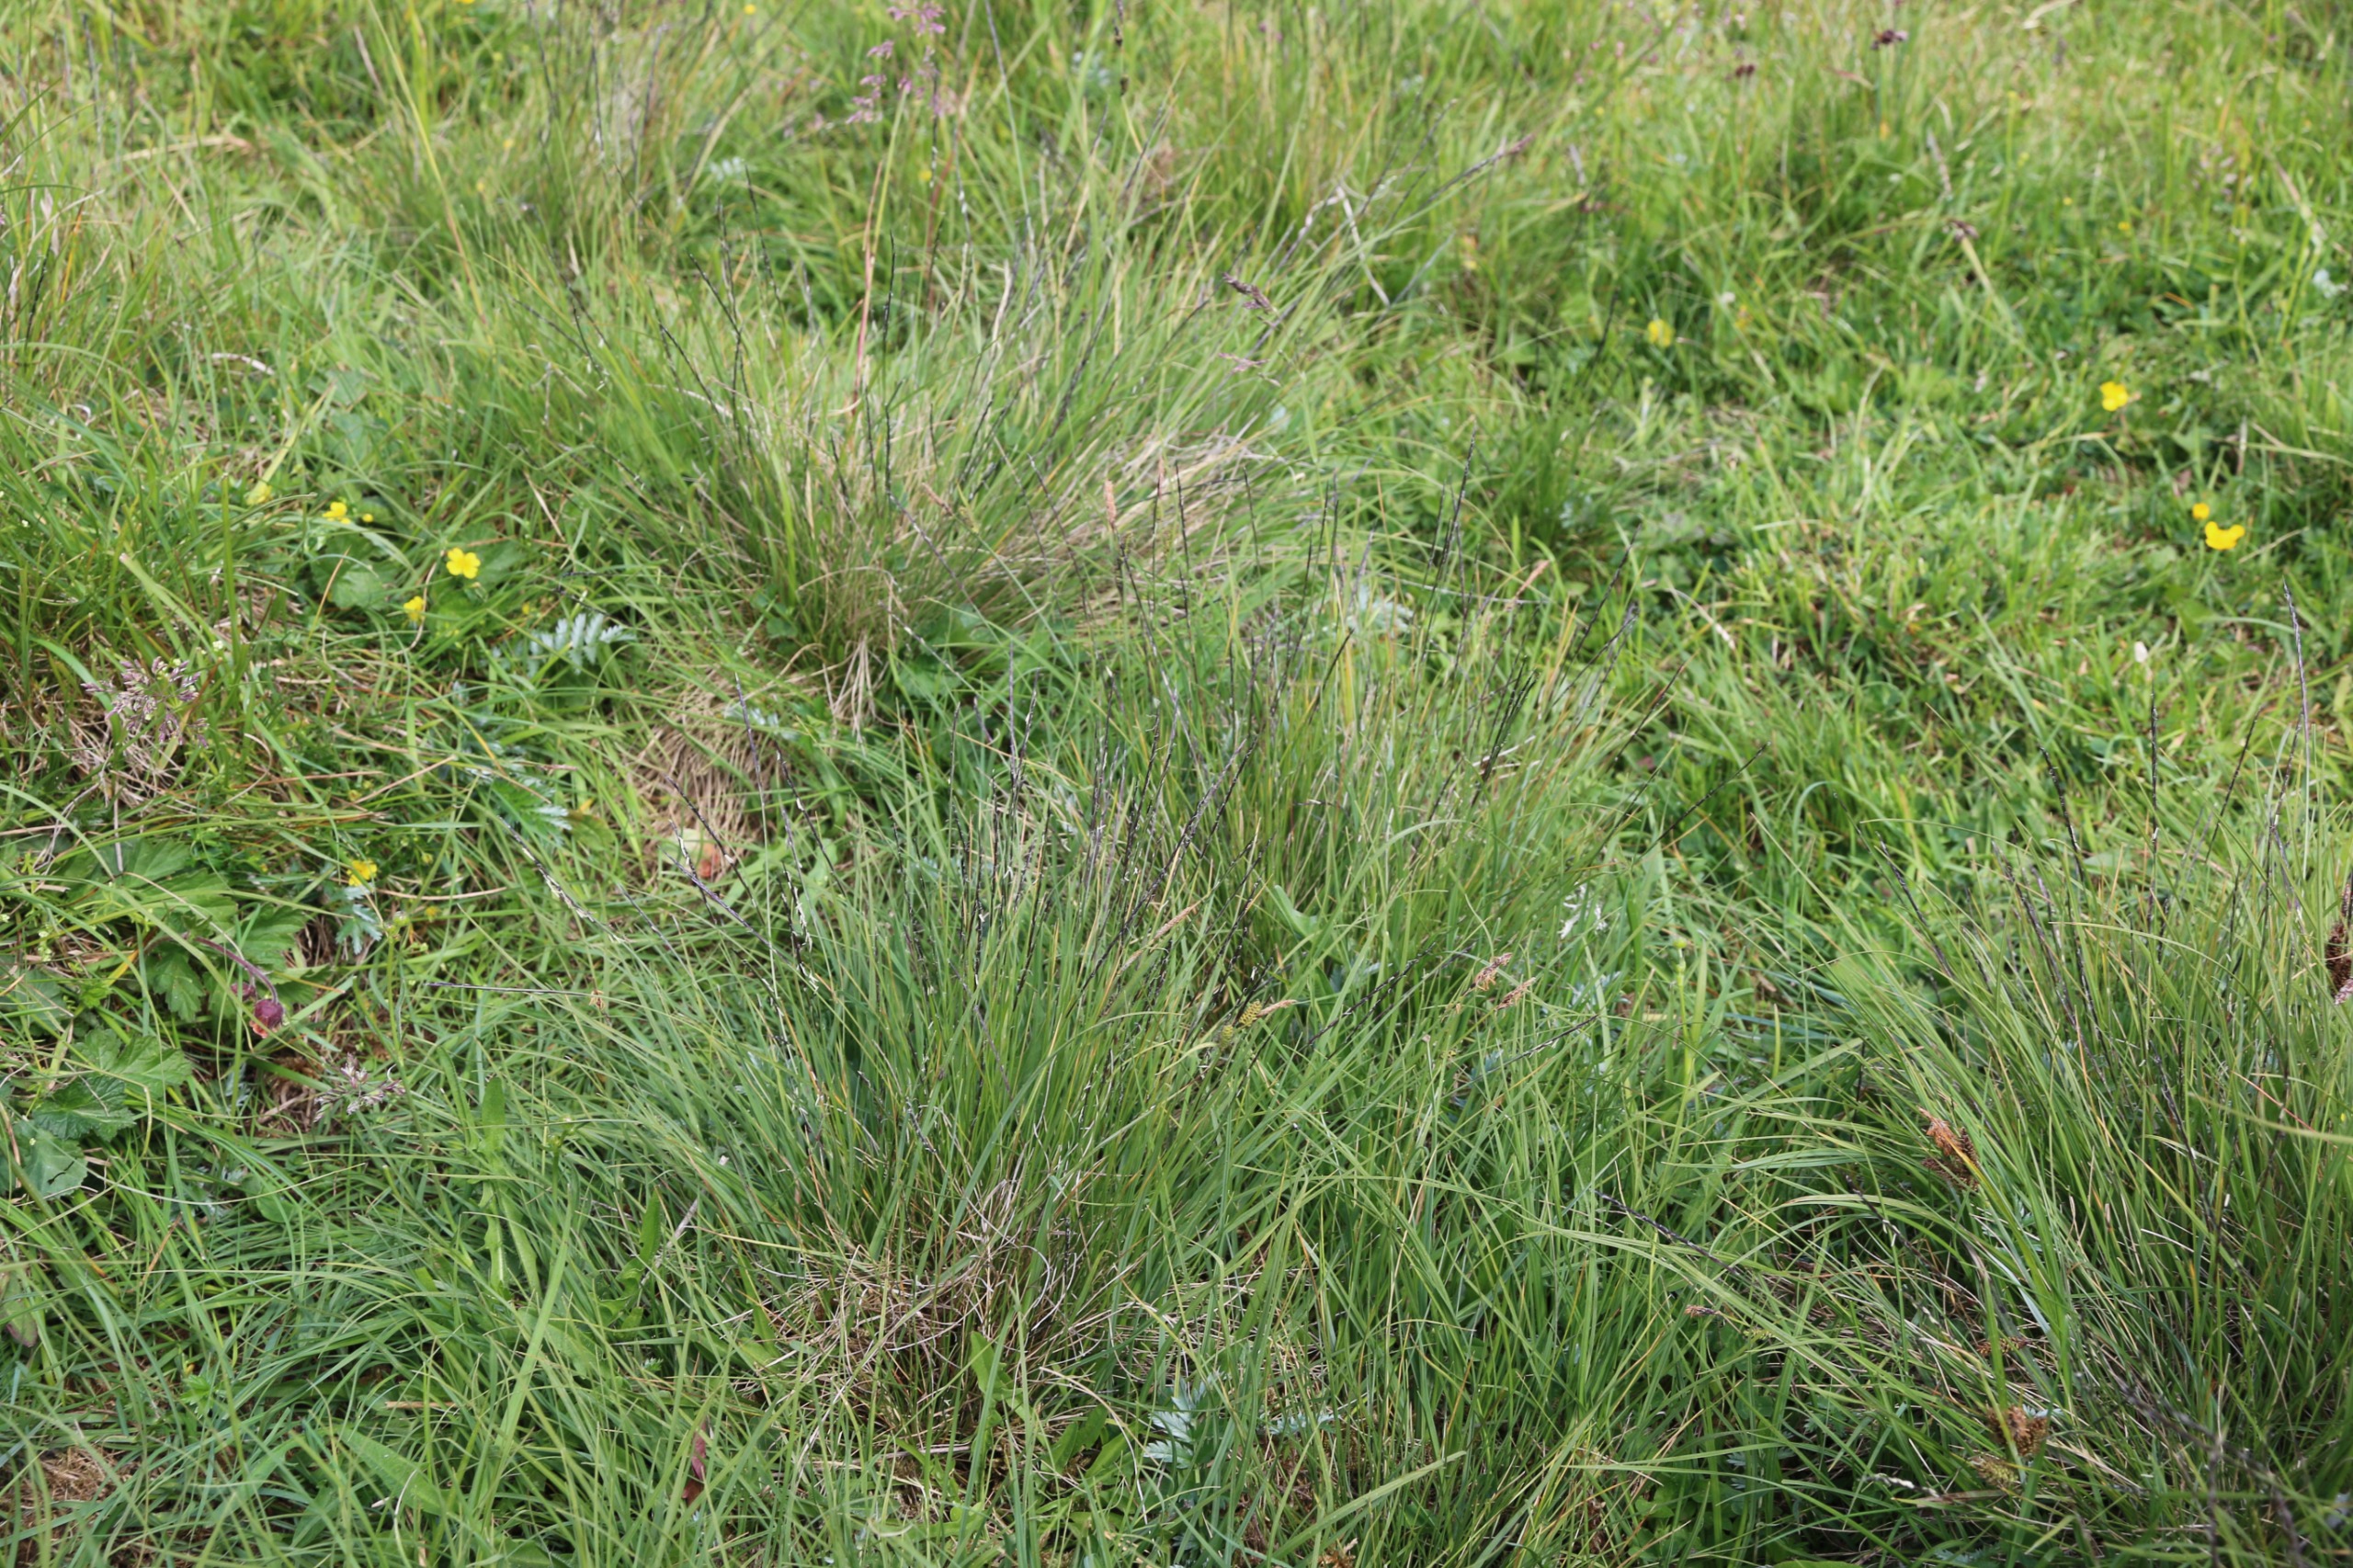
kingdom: Plantae
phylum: Tracheophyta
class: Liliopsida
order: Poales
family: Poaceae
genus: Nardus
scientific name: Nardus stricta
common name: Katteskæg
